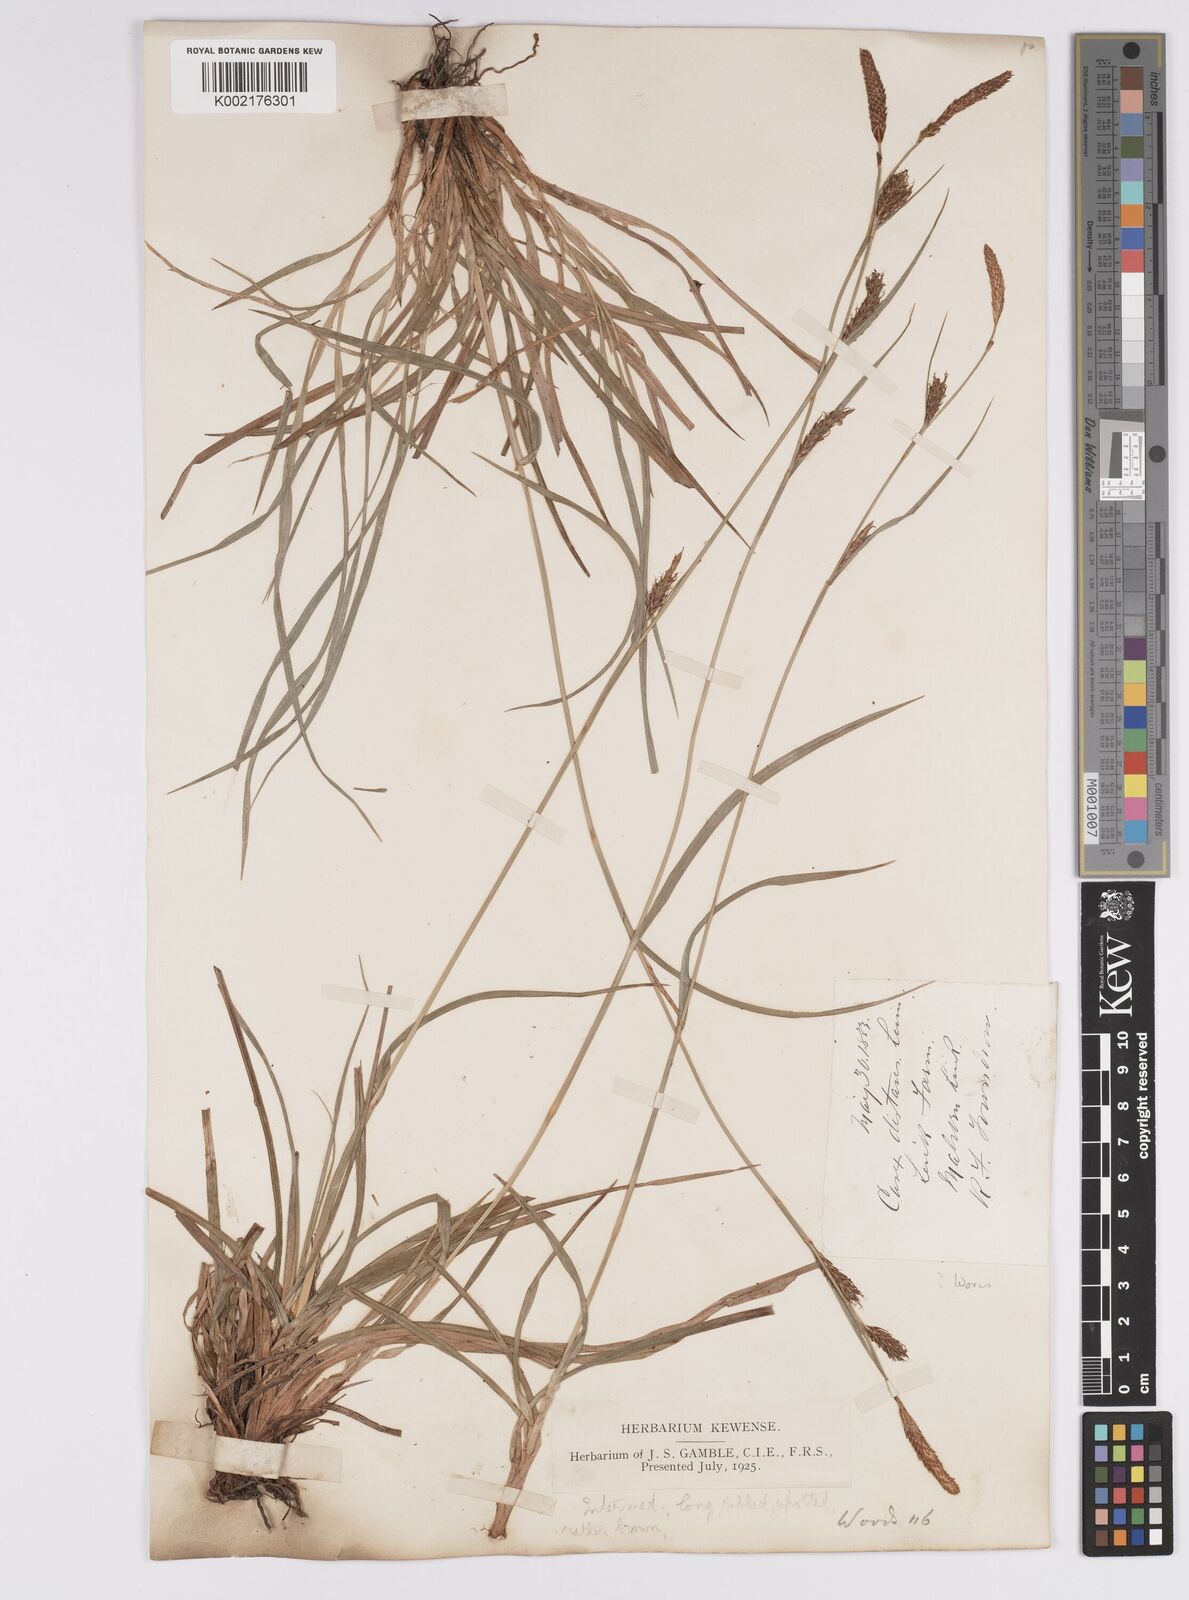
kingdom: Plantae
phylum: Tracheophyta
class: Liliopsida
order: Poales
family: Cyperaceae
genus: Carex
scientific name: Carex distans
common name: Distant sedge
